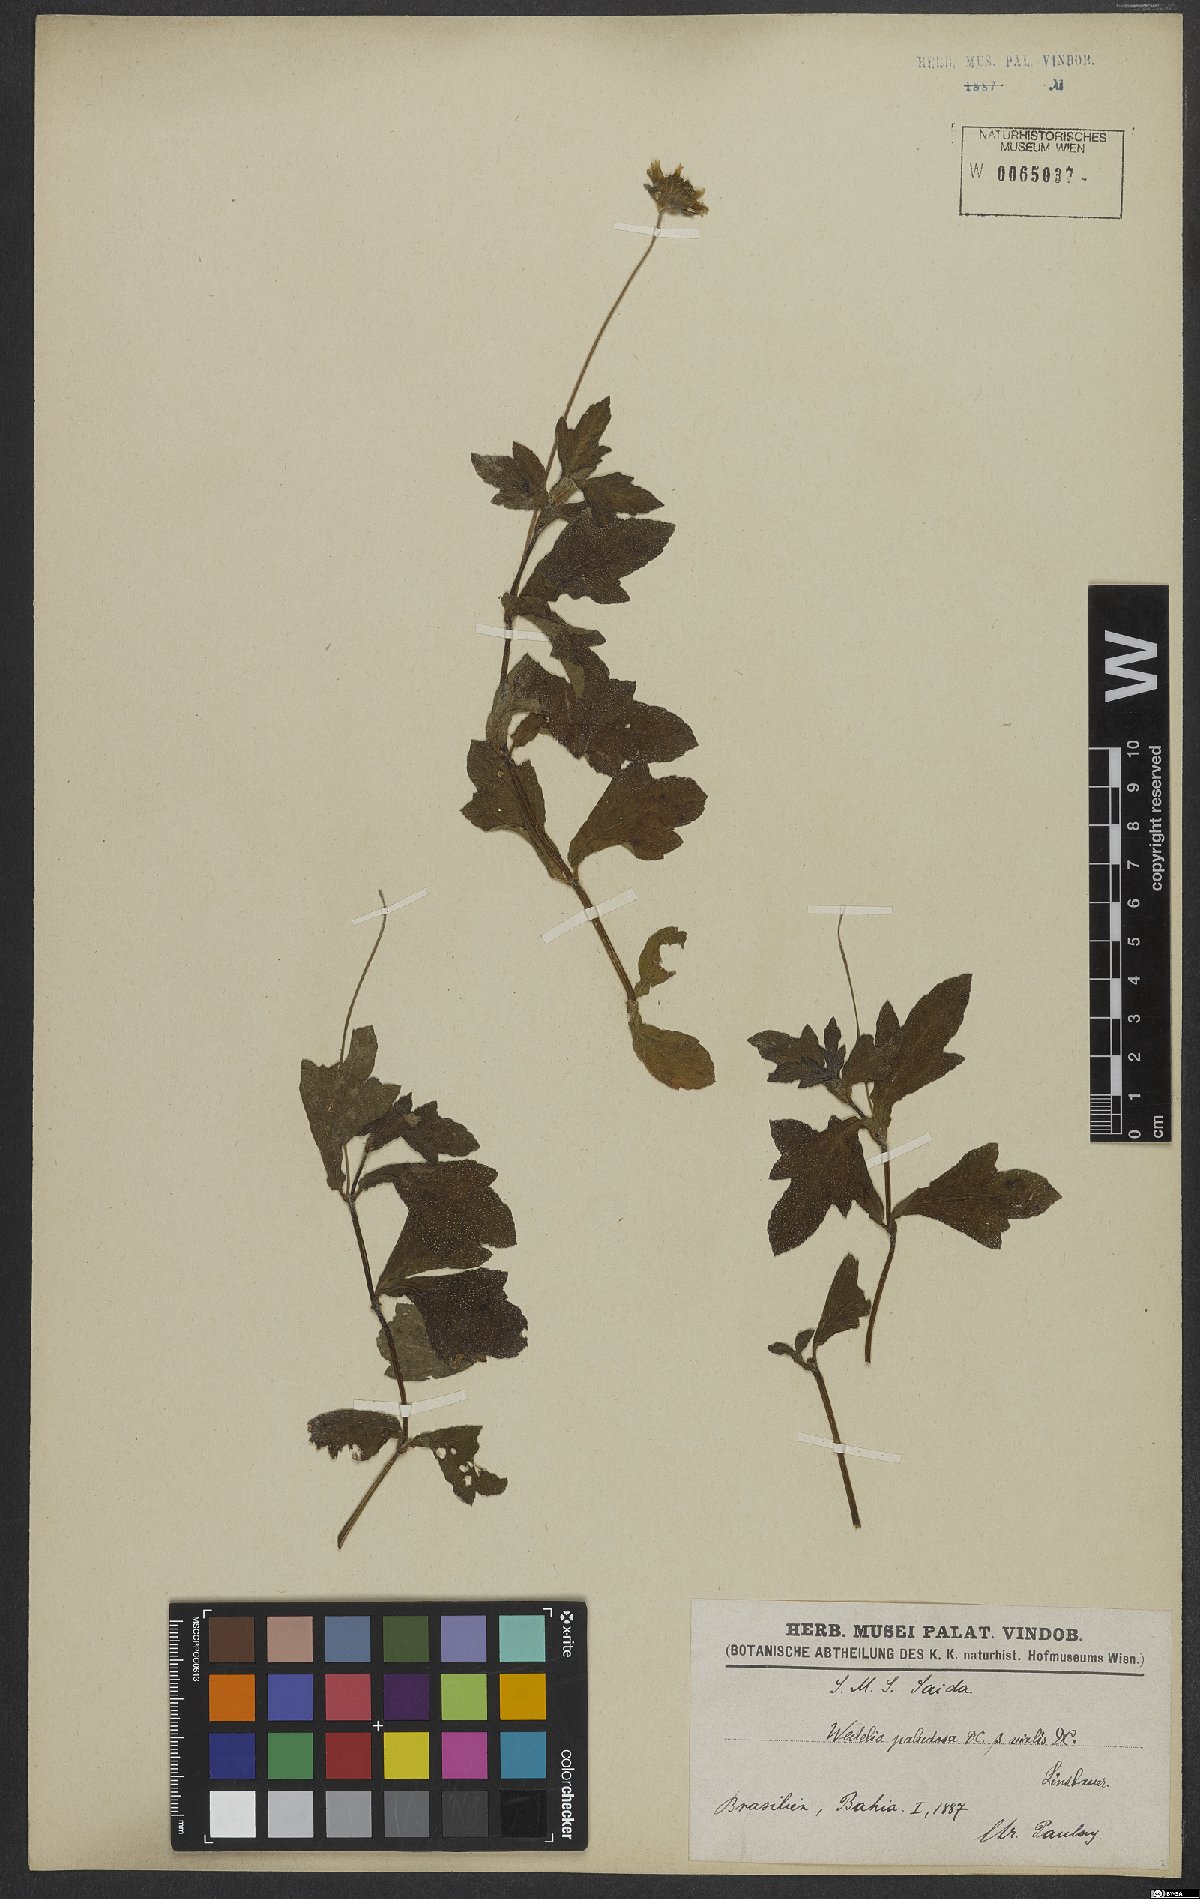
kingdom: Plantae
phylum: Tracheophyta
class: Magnoliopsida
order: Asterales
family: Asteraceae
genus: Sphagneticola
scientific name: Sphagneticola trilobata
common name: Bay biscayne creeping-oxeye
